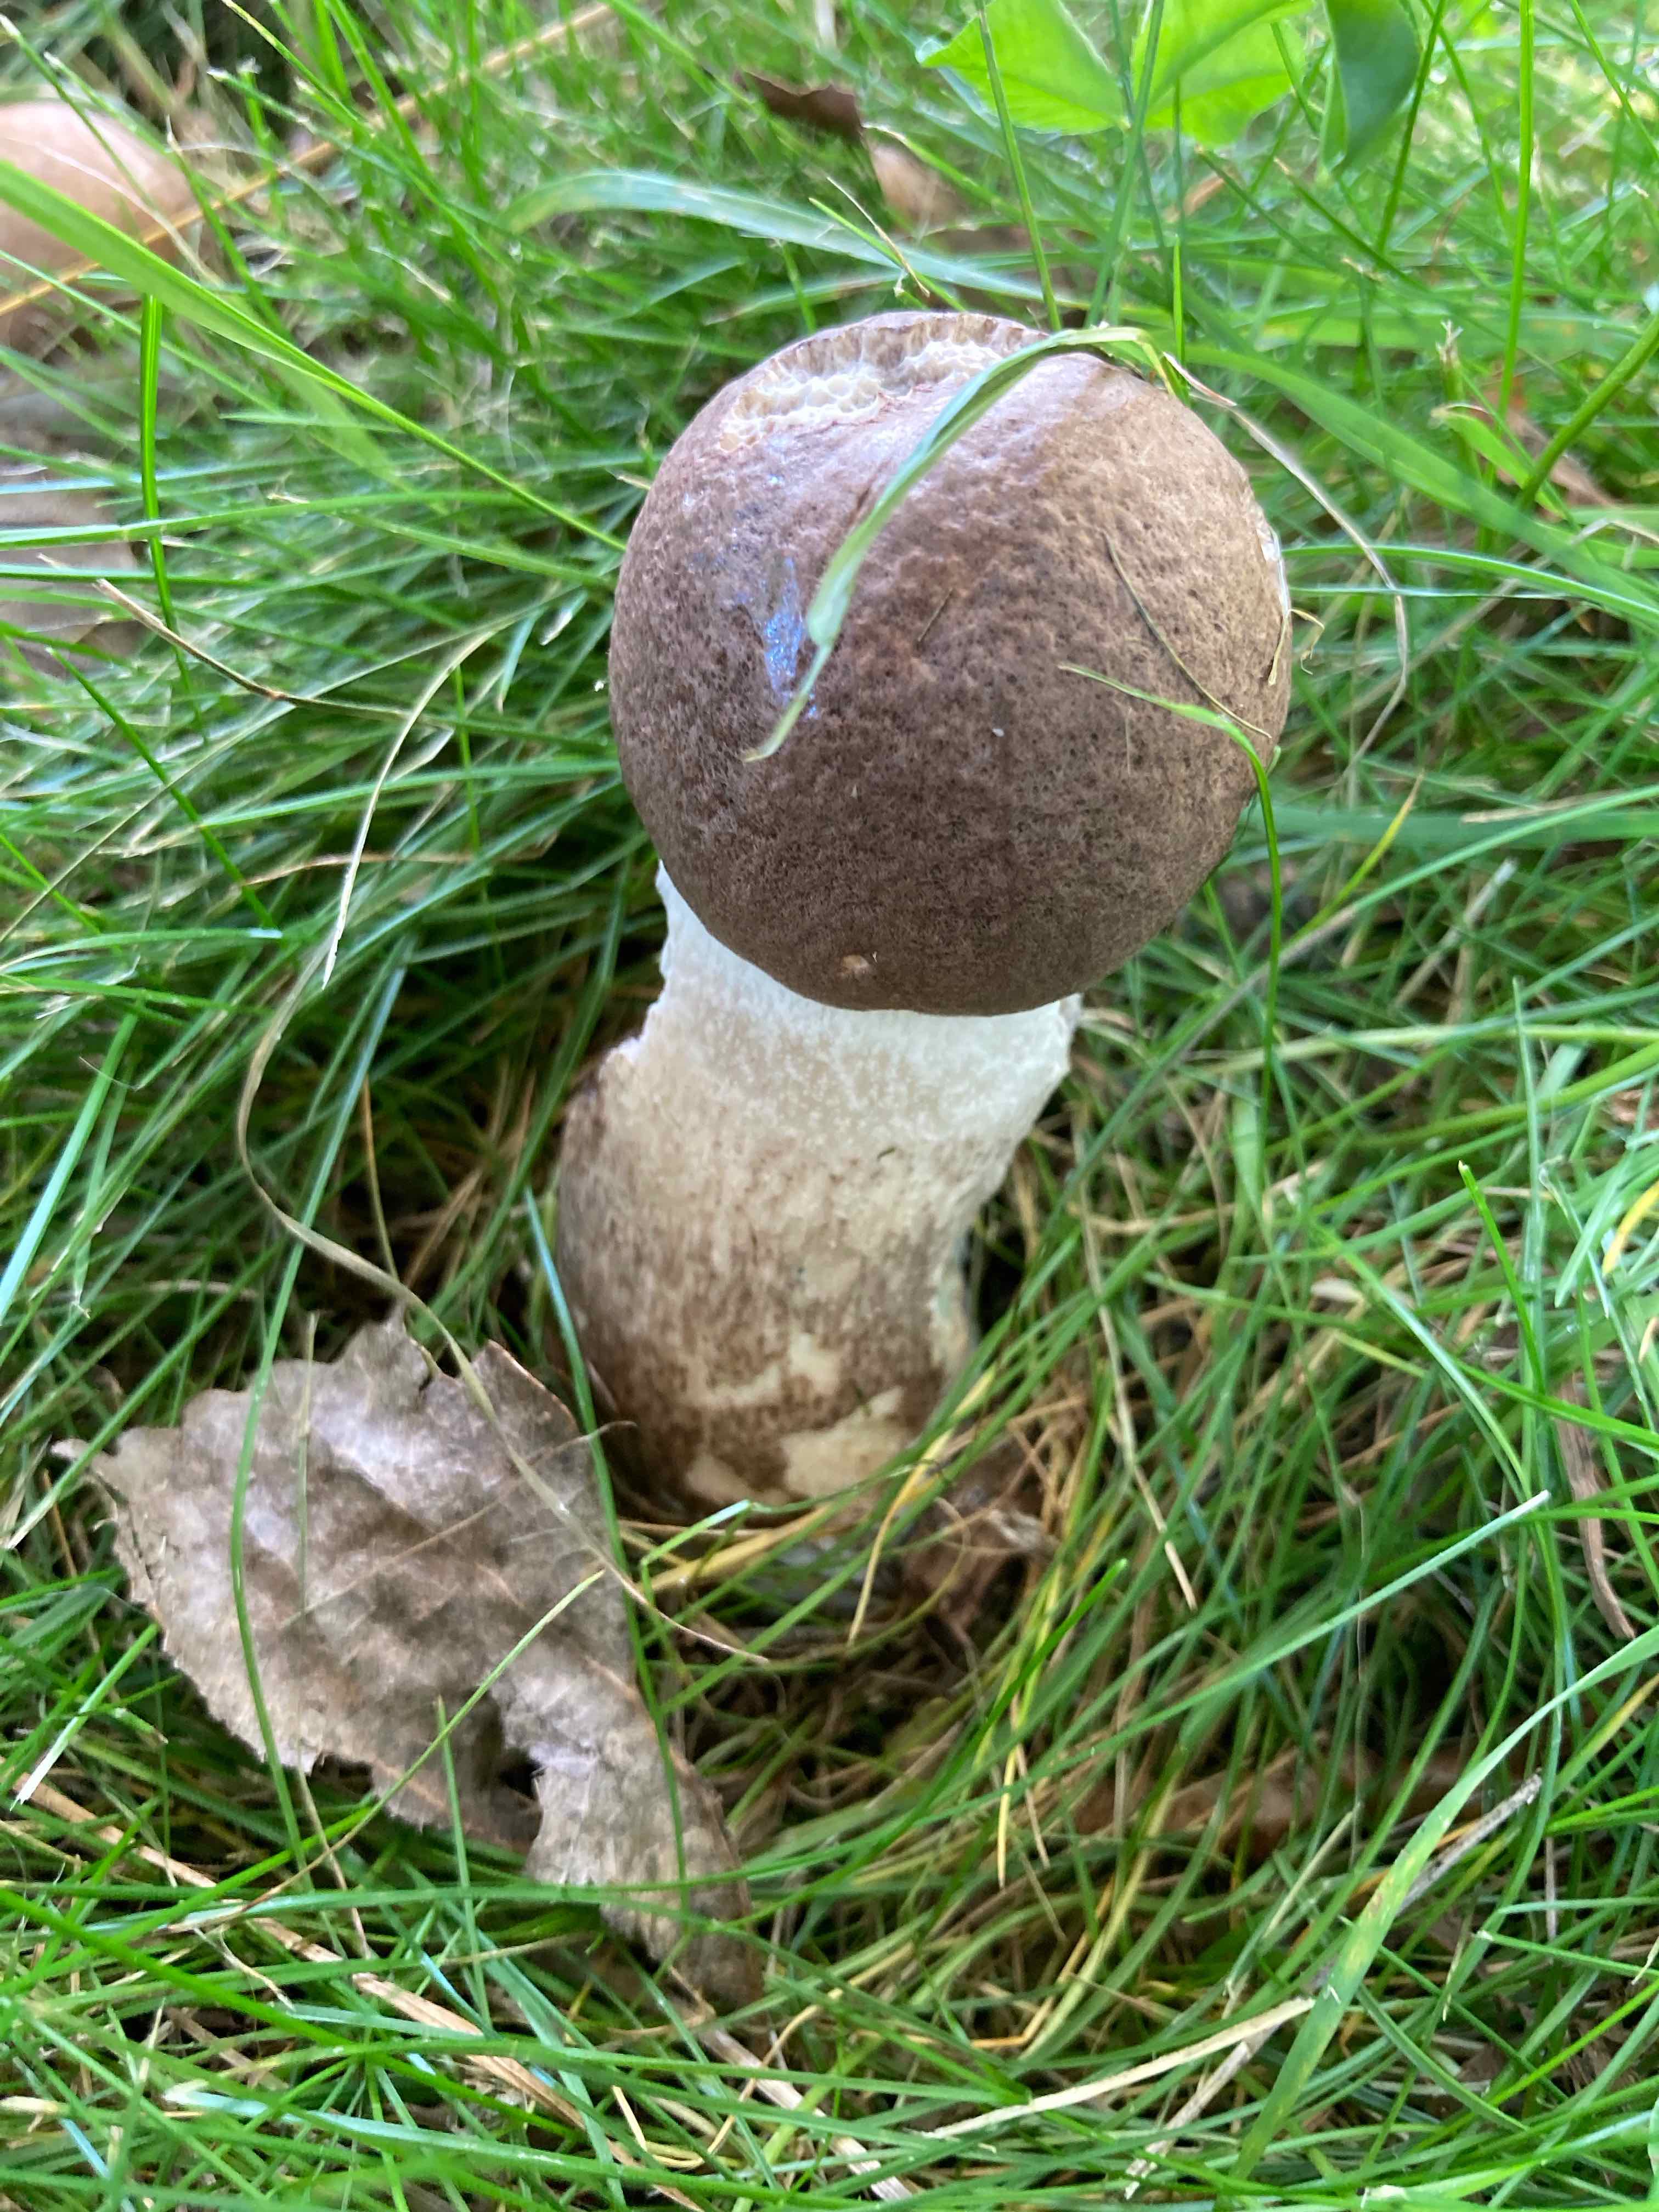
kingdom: Fungi
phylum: Basidiomycota
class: Agaricomycetes
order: Boletales
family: Boletaceae
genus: Leccinum
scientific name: Leccinum duriusculum
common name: poppel-skælrørhat
